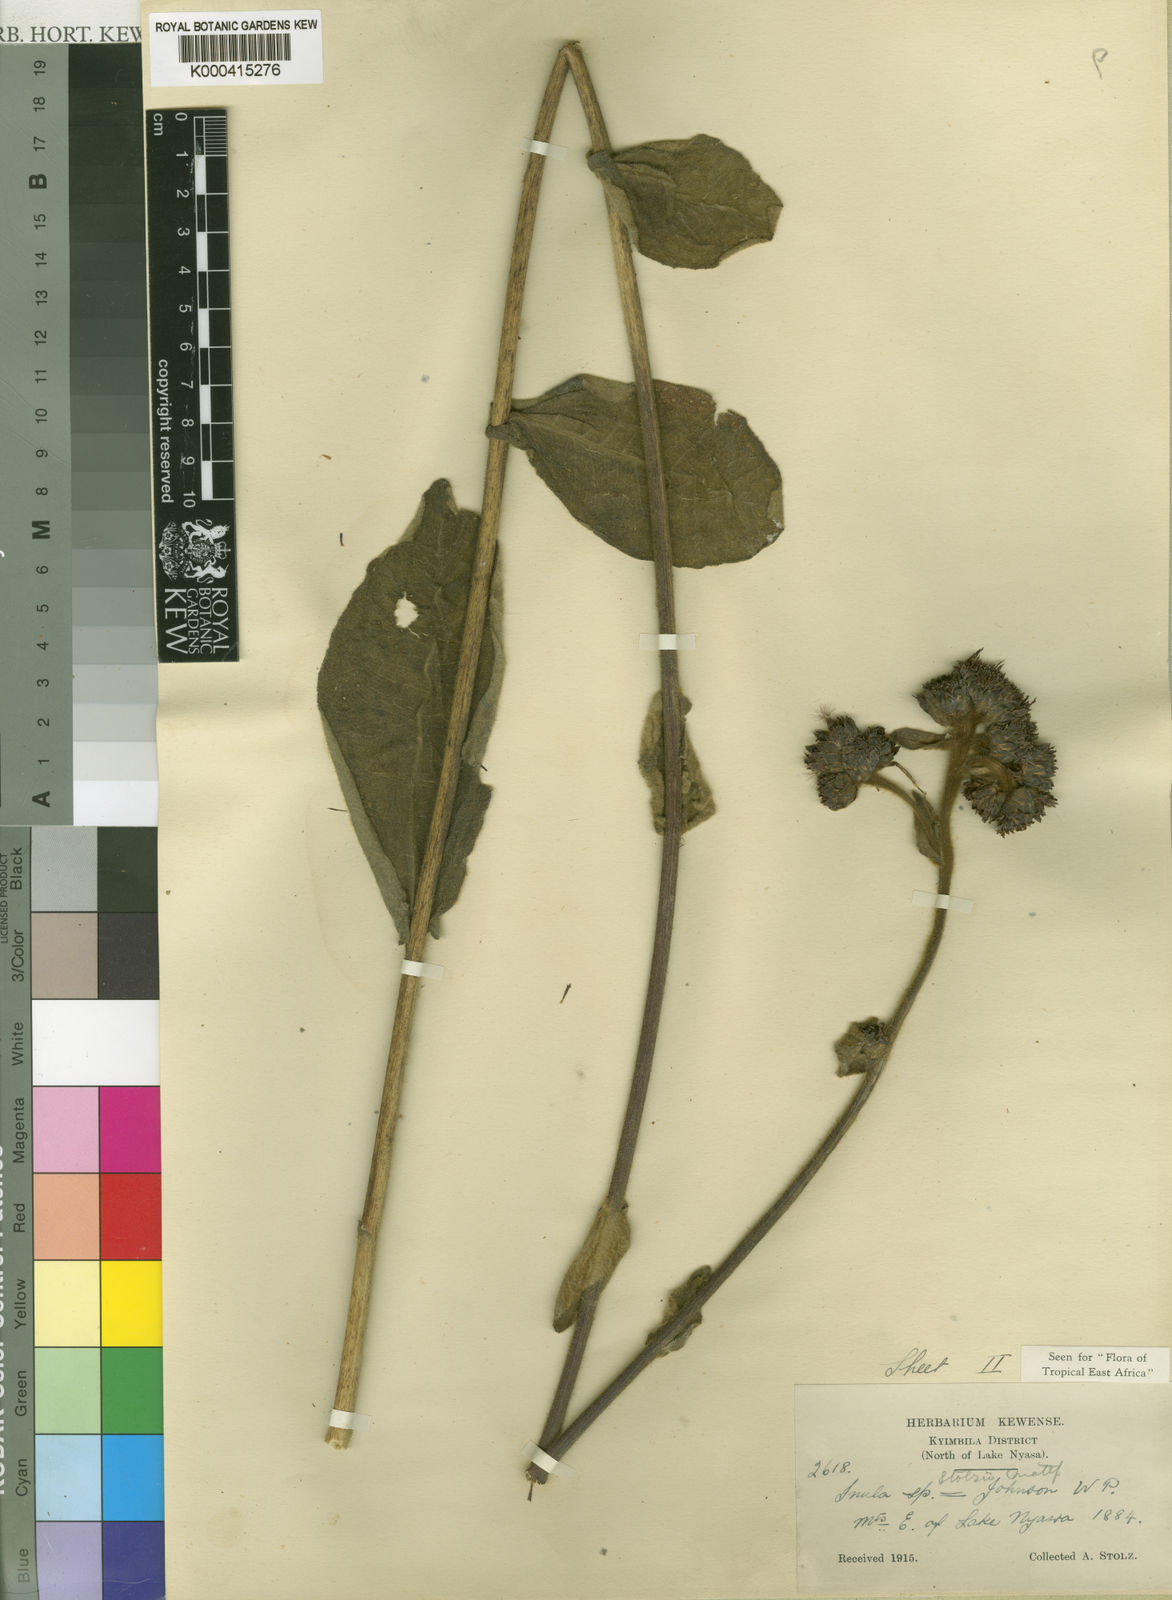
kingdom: Plantae
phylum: Tracheophyta
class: Magnoliopsida
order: Asterales
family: Asteraceae
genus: Inula
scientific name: Inula stolzii
